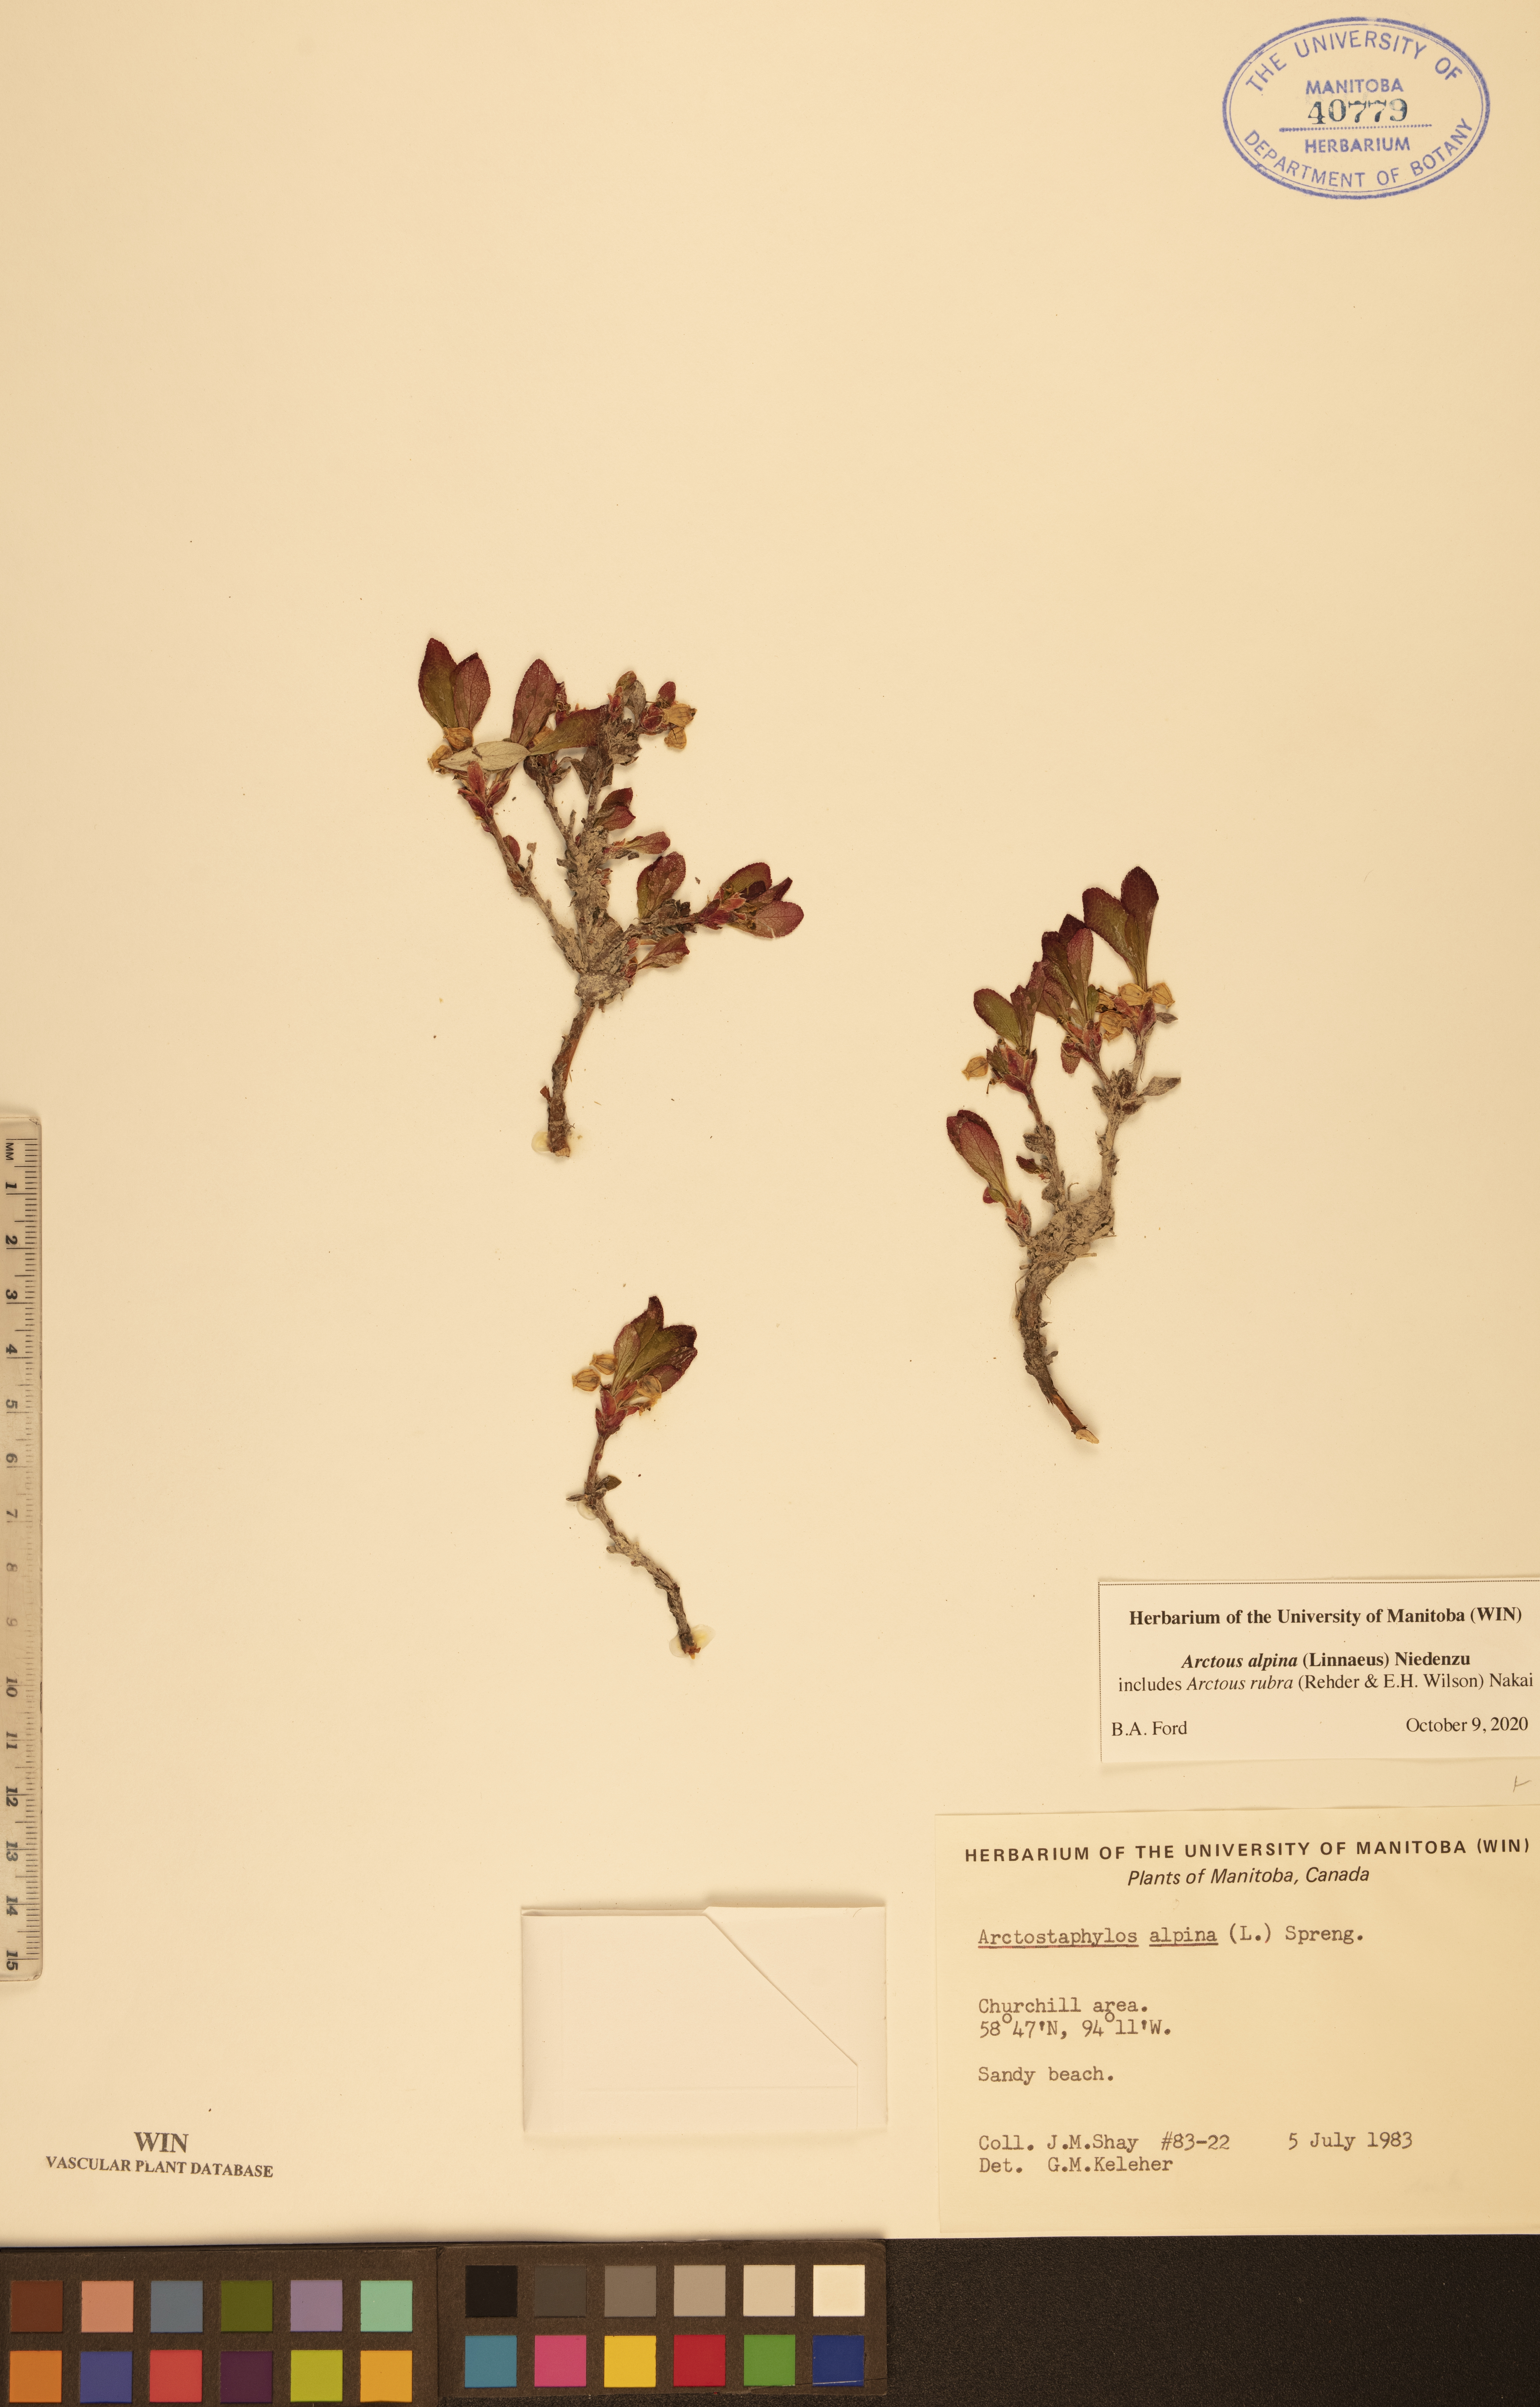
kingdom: Plantae
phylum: Tracheophyta
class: Magnoliopsida
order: Ericales
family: Ericaceae
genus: Arctostaphylos
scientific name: Arctostaphylos alpinus
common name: Alpine bearberry
